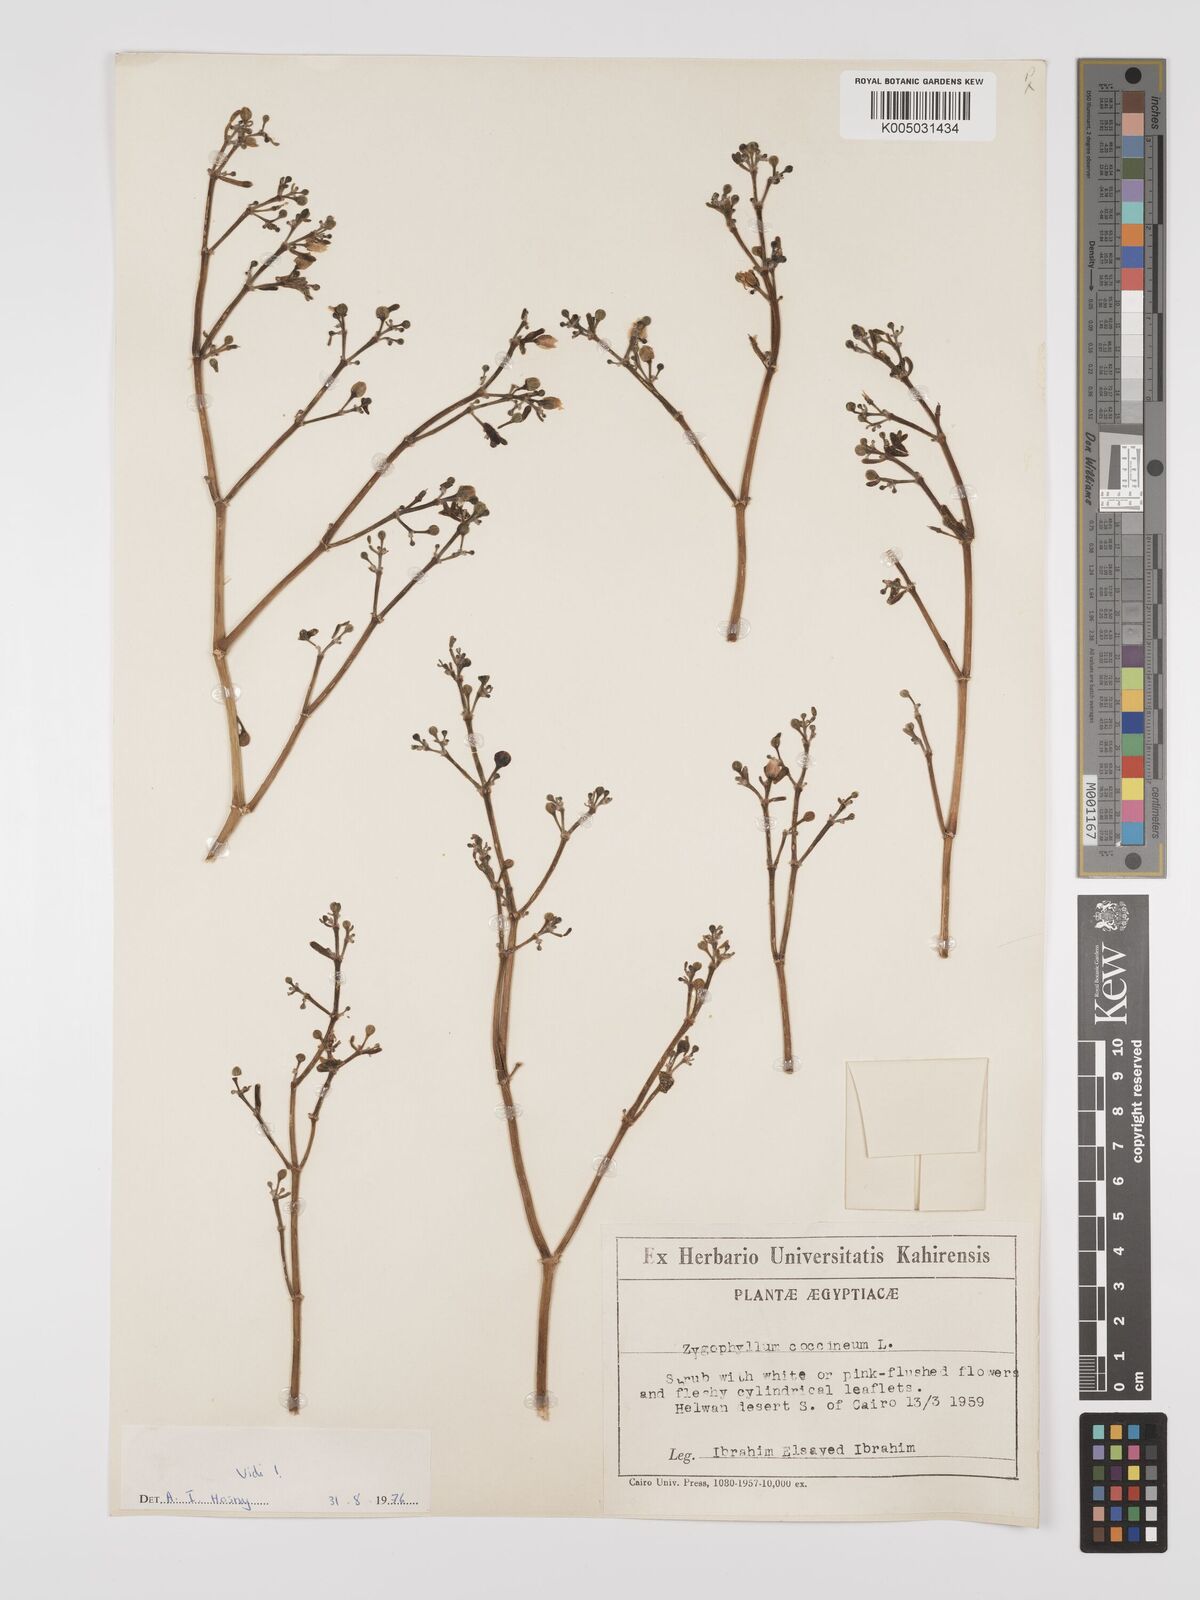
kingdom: Plantae
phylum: Tracheophyta
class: Magnoliopsida
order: Zygophyllales
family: Zygophyllaceae
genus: Zygophyllum
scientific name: Zygophyllum
